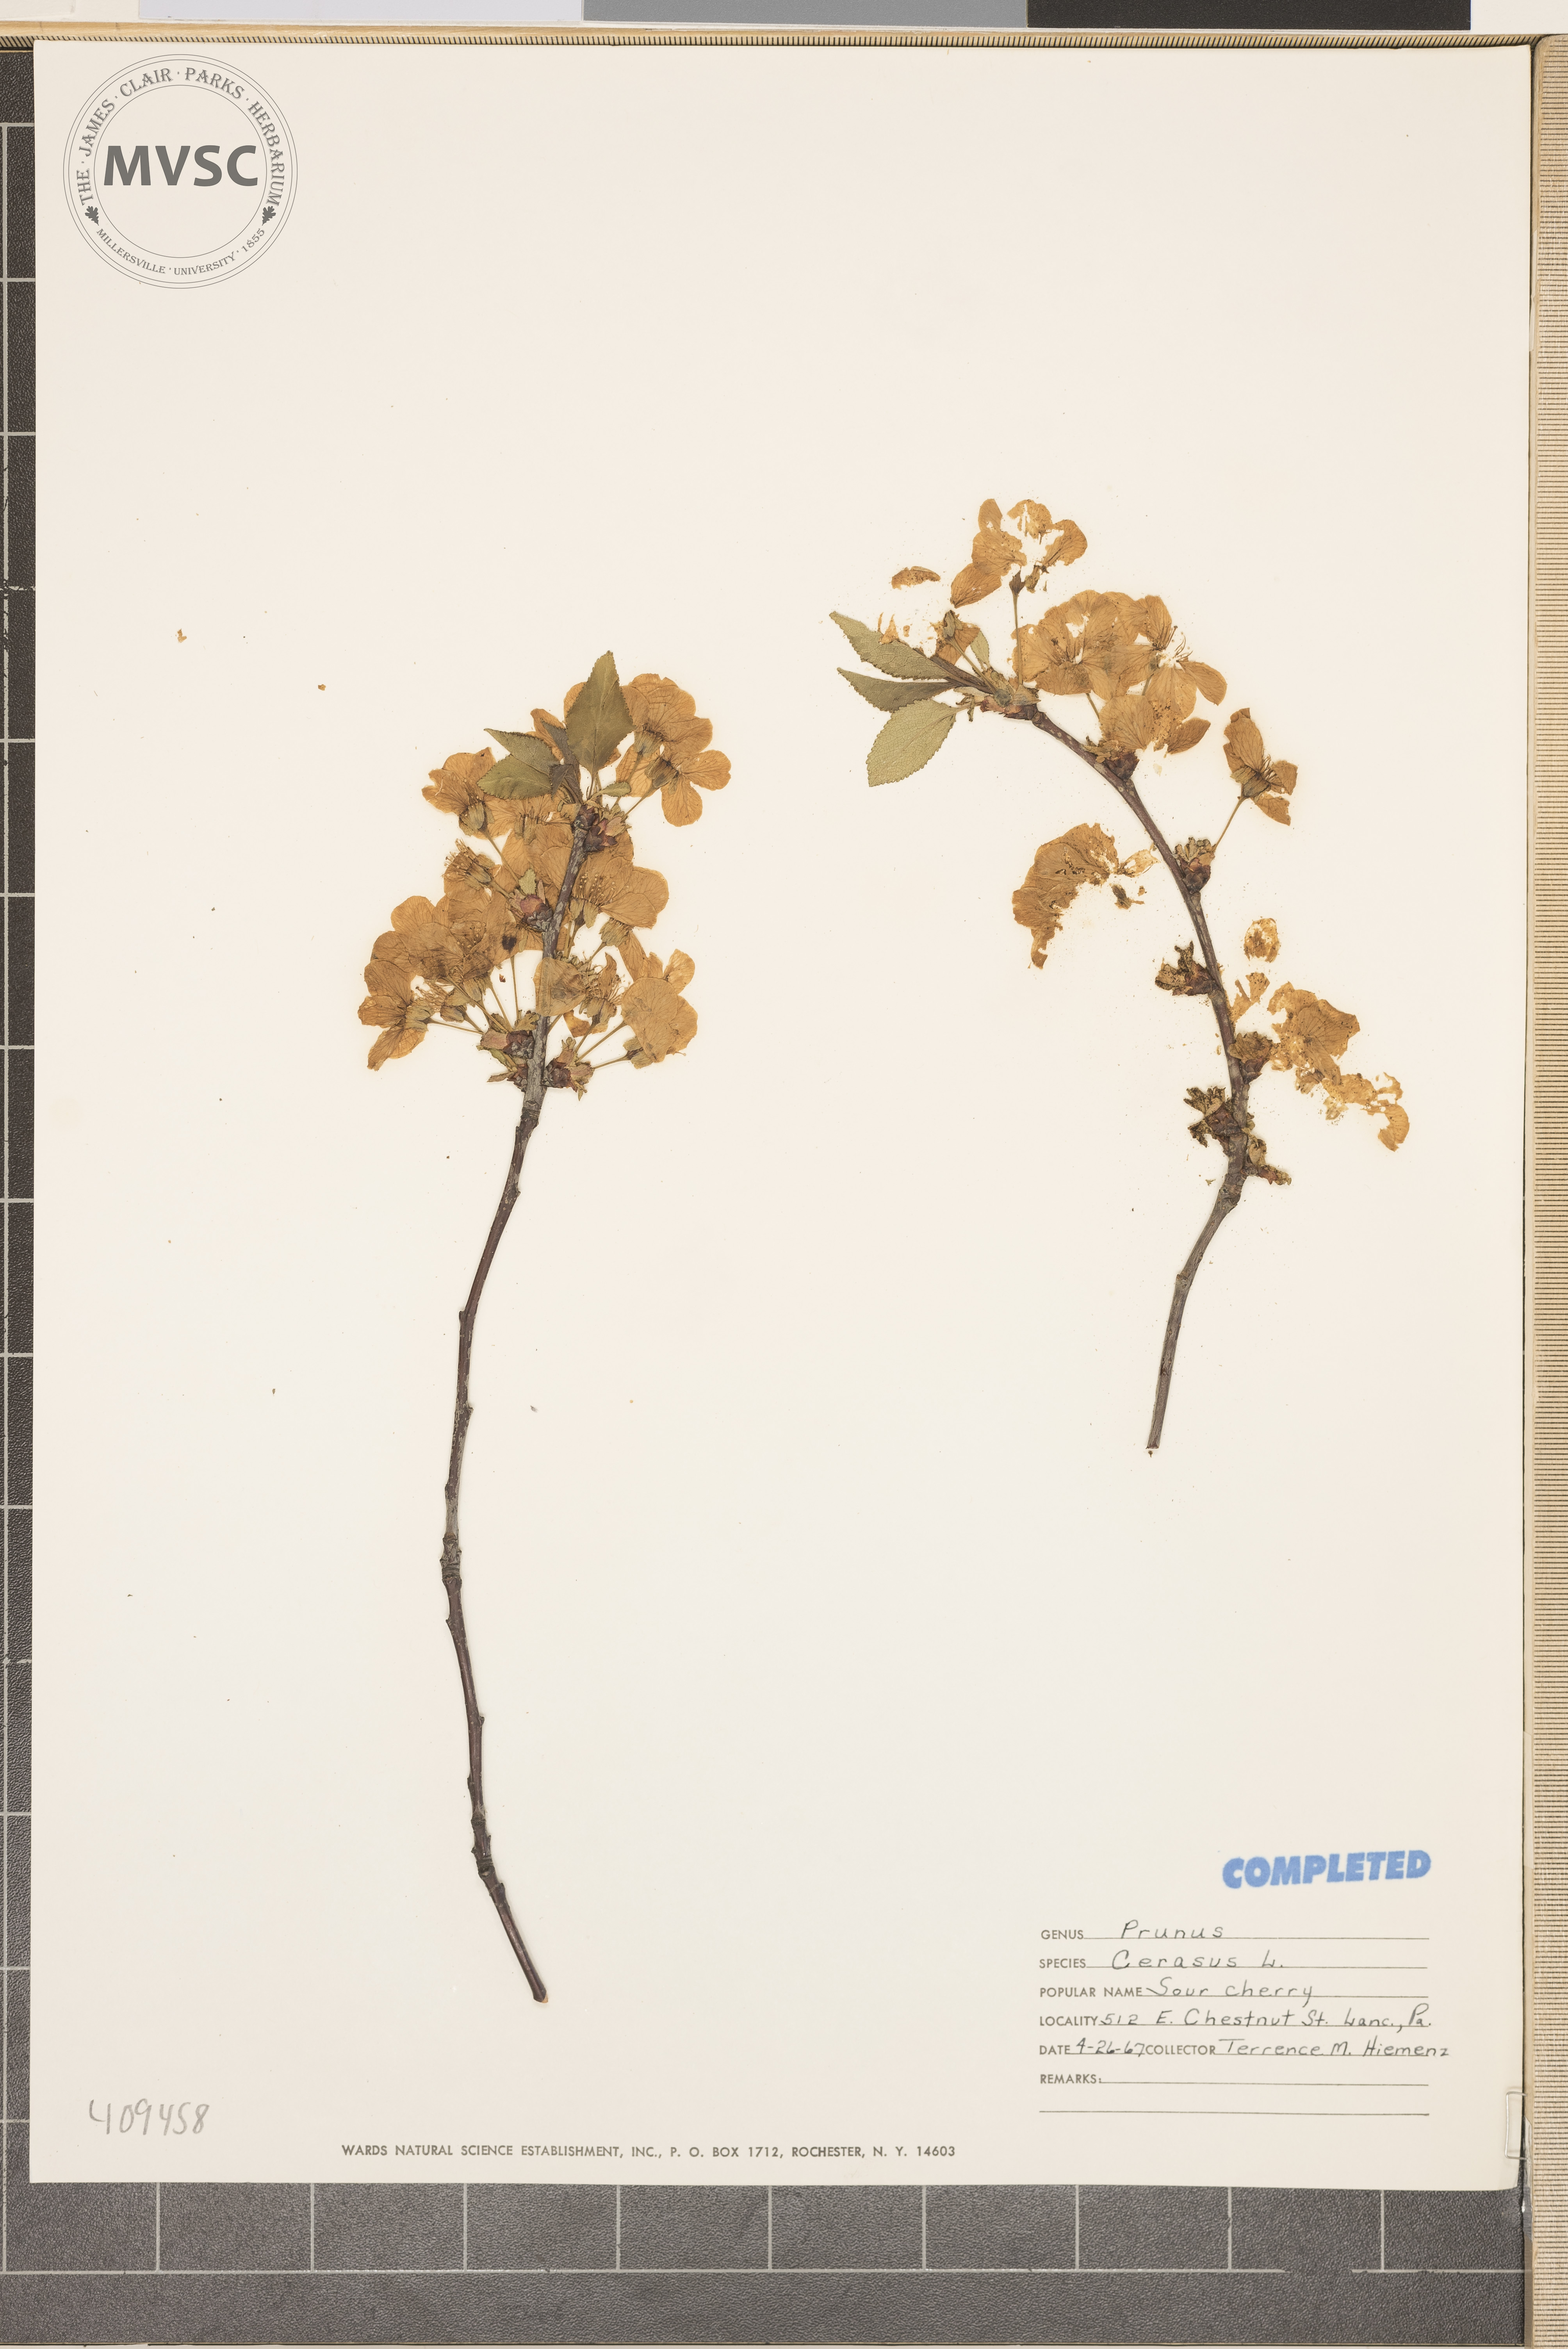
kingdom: Plantae
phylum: Tracheophyta
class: Magnoliopsida
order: Rosales
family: Rosaceae
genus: Prunus
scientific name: Prunus cerasus
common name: sour cherry
